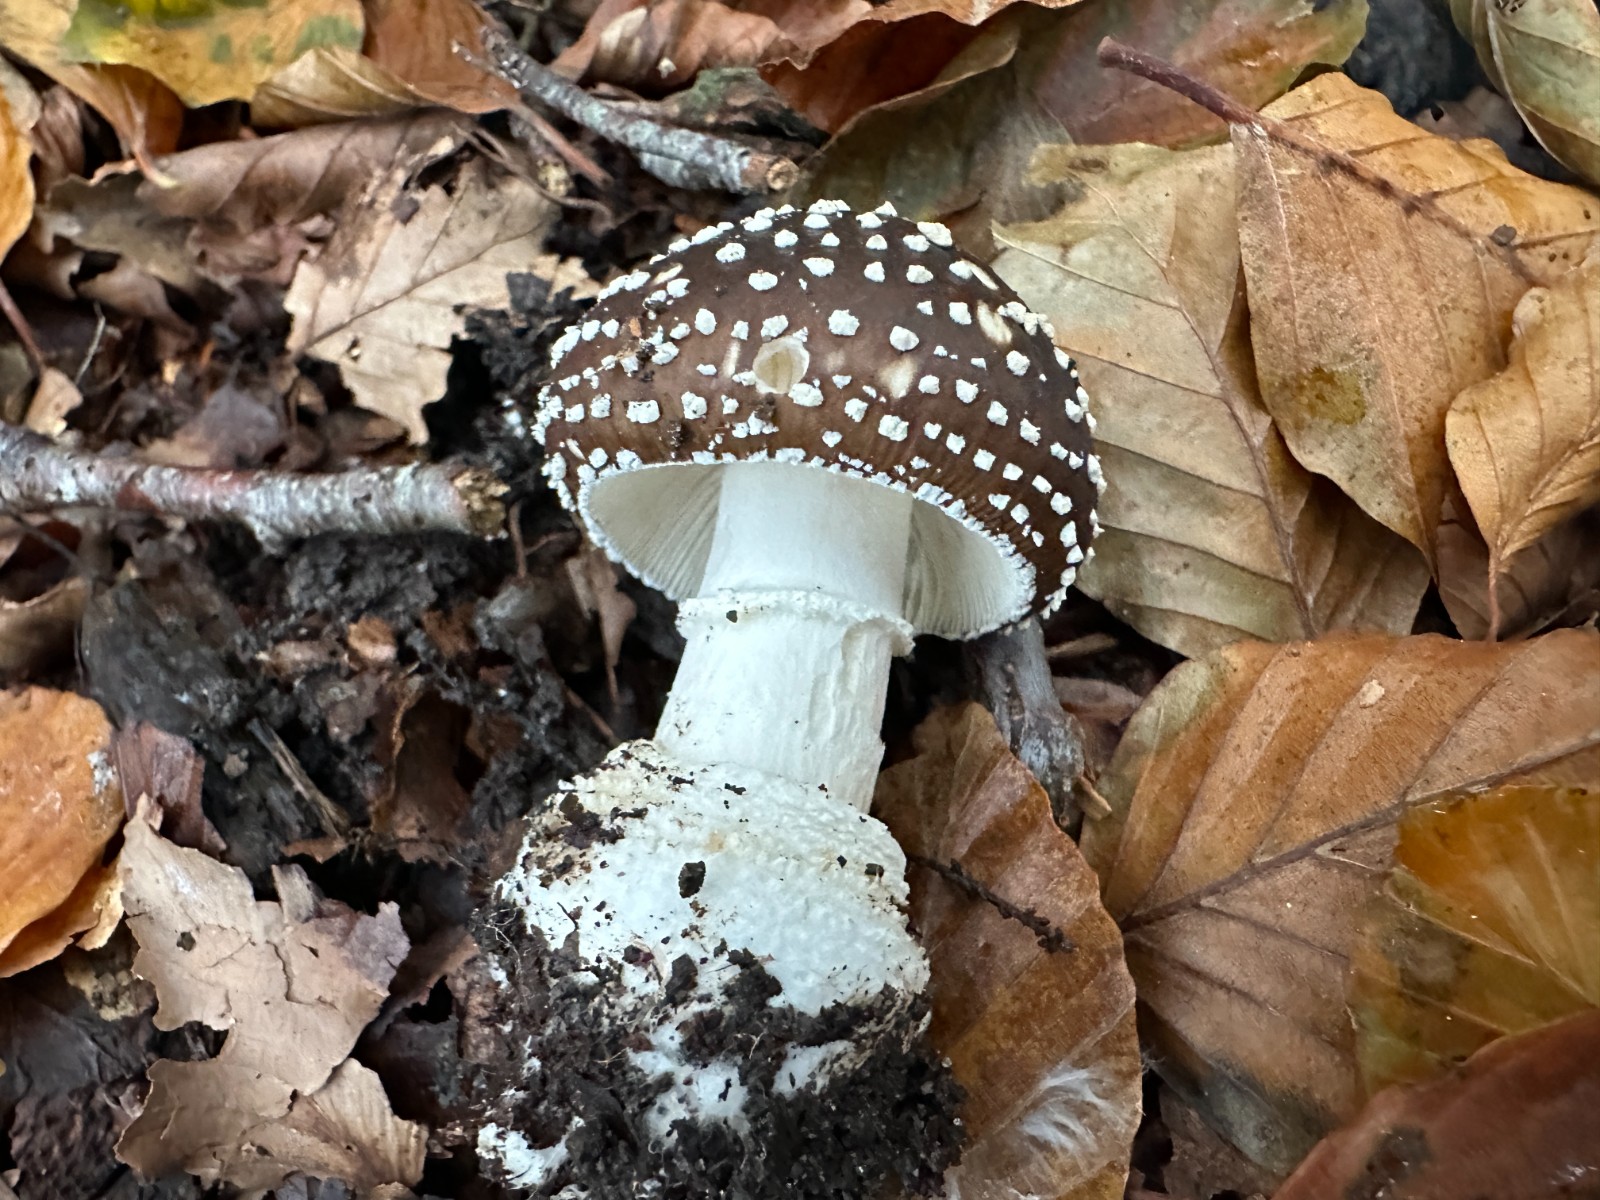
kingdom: Fungi
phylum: Basidiomycota
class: Agaricomycetes
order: Agaricales
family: Amanitaceae
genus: Amanita
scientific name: Amanita pantherina
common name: panter-fluesvamp
